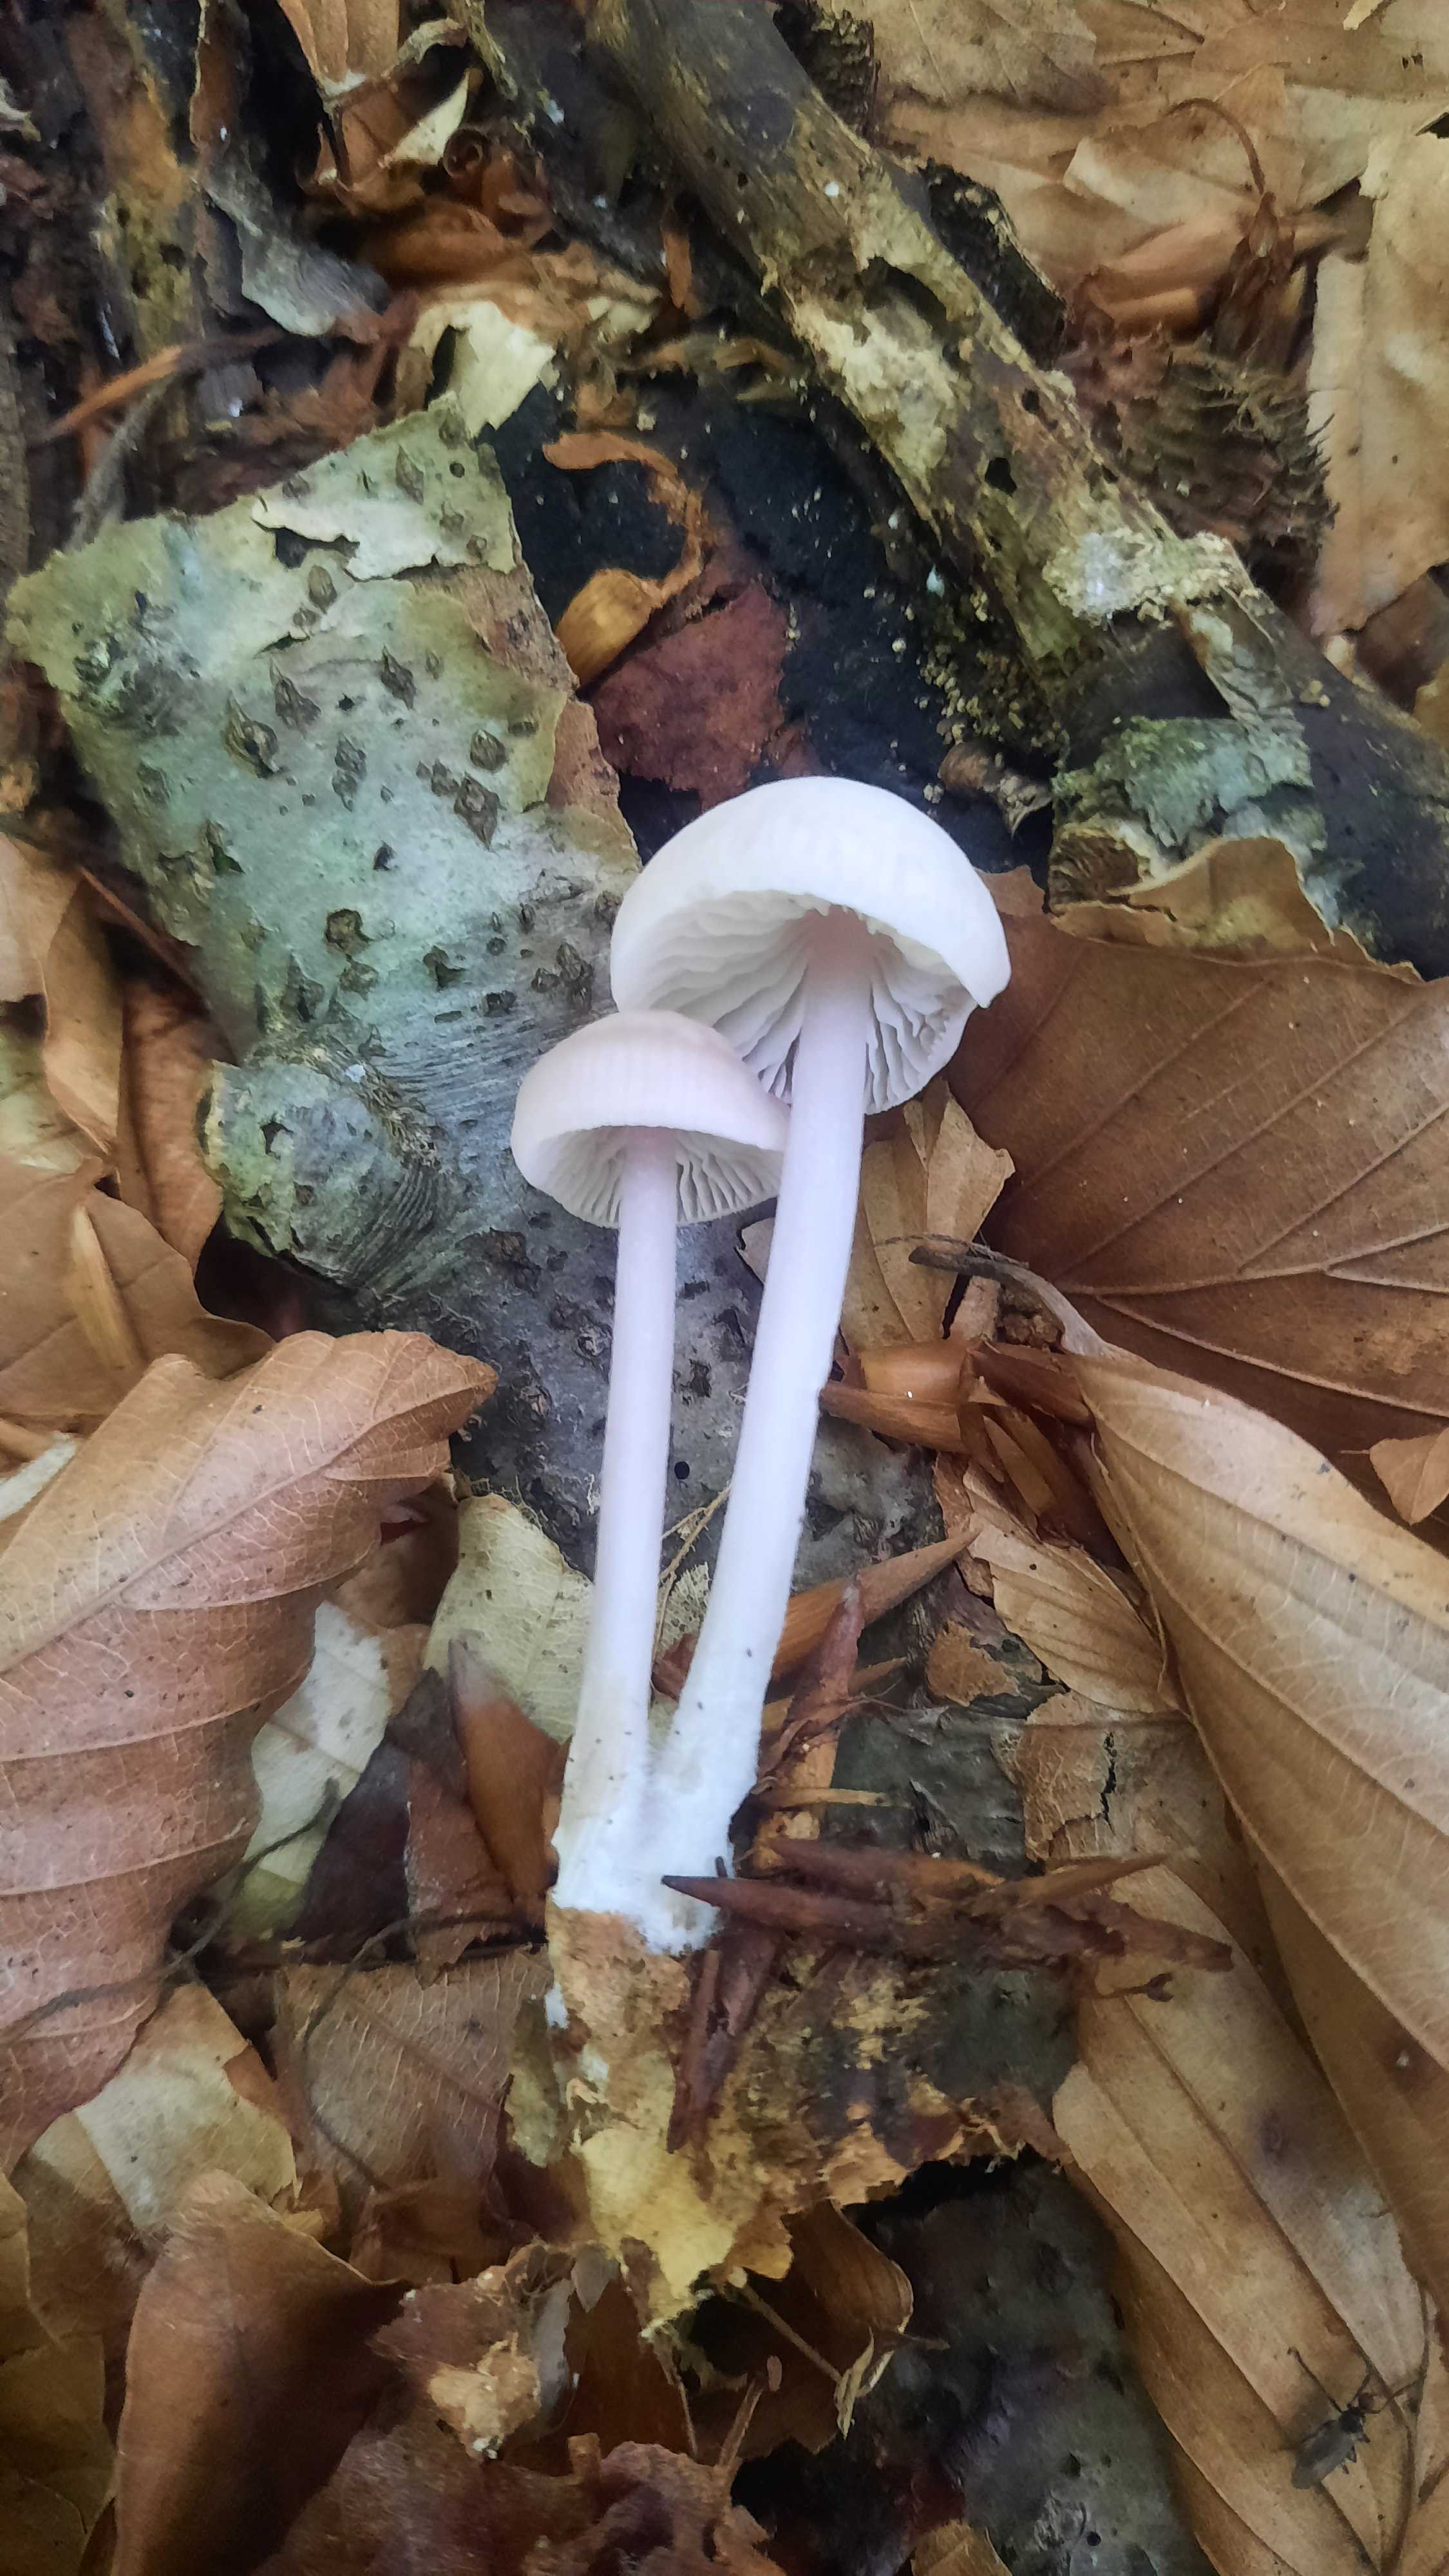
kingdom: Fungi
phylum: Basidiomycota
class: Agaricomycetes
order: Agaricales
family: Mycenaceae
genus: Mycena
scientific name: Mycena rosea
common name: rosa huesvamp
